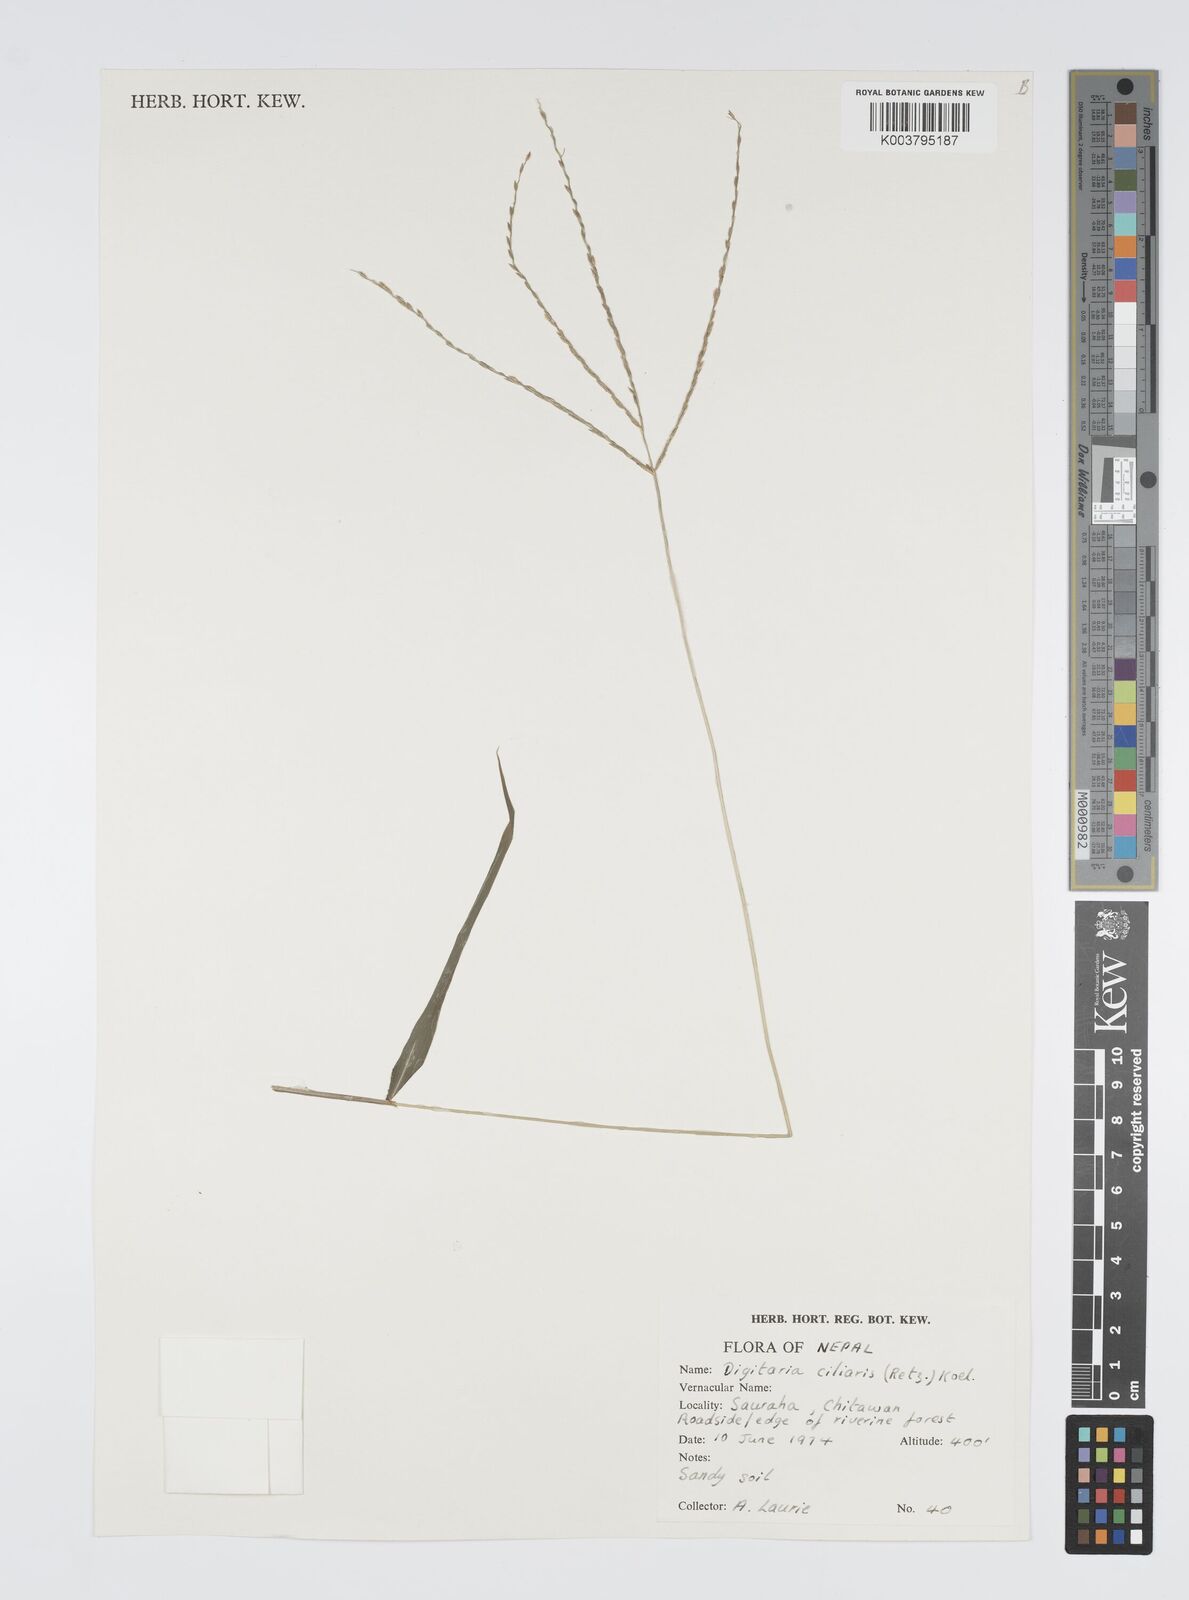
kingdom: Plantae
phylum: Tracheophyta
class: Liliopsida
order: Poales
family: Poaceae
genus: Digitaria
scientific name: Digitaria ciliaris
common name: Tropical finger-grass
